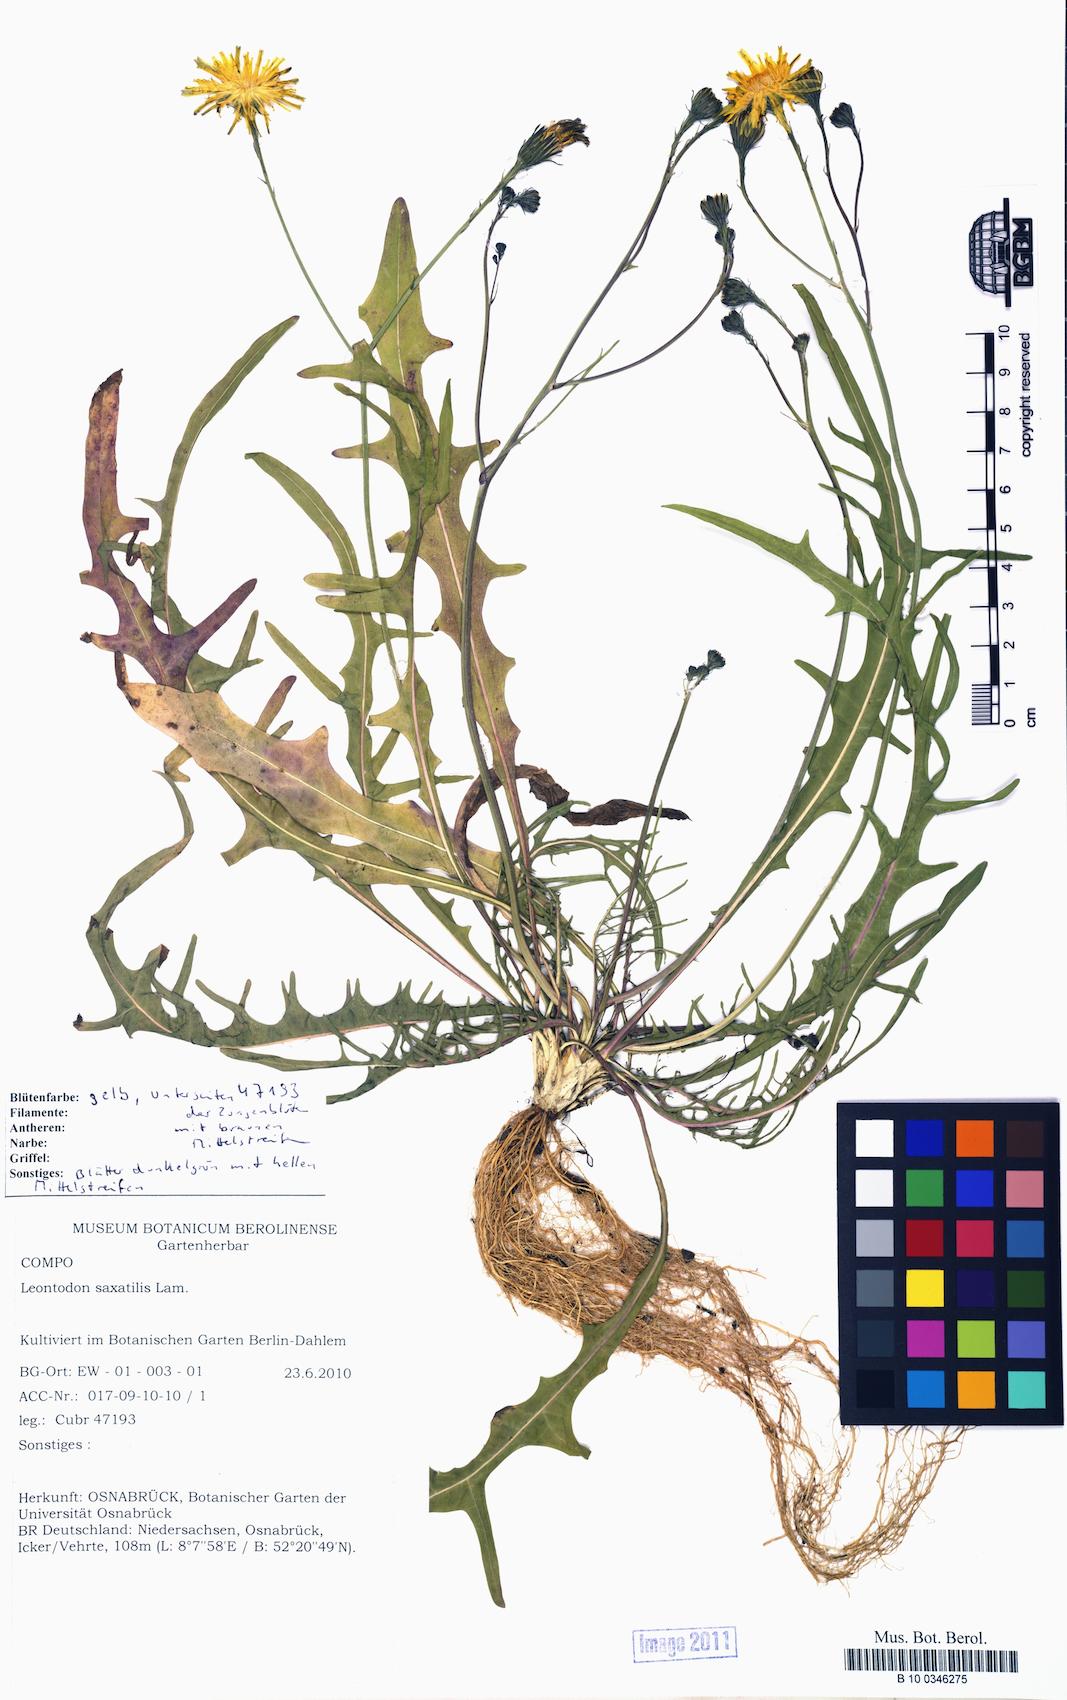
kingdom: Plantae
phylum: Tracheophyta
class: Magnoliopsida
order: Asterales
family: Asteraceae
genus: Scorzoneroides
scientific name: Scorzoneroides autumnalis
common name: Autumn hawkbit
